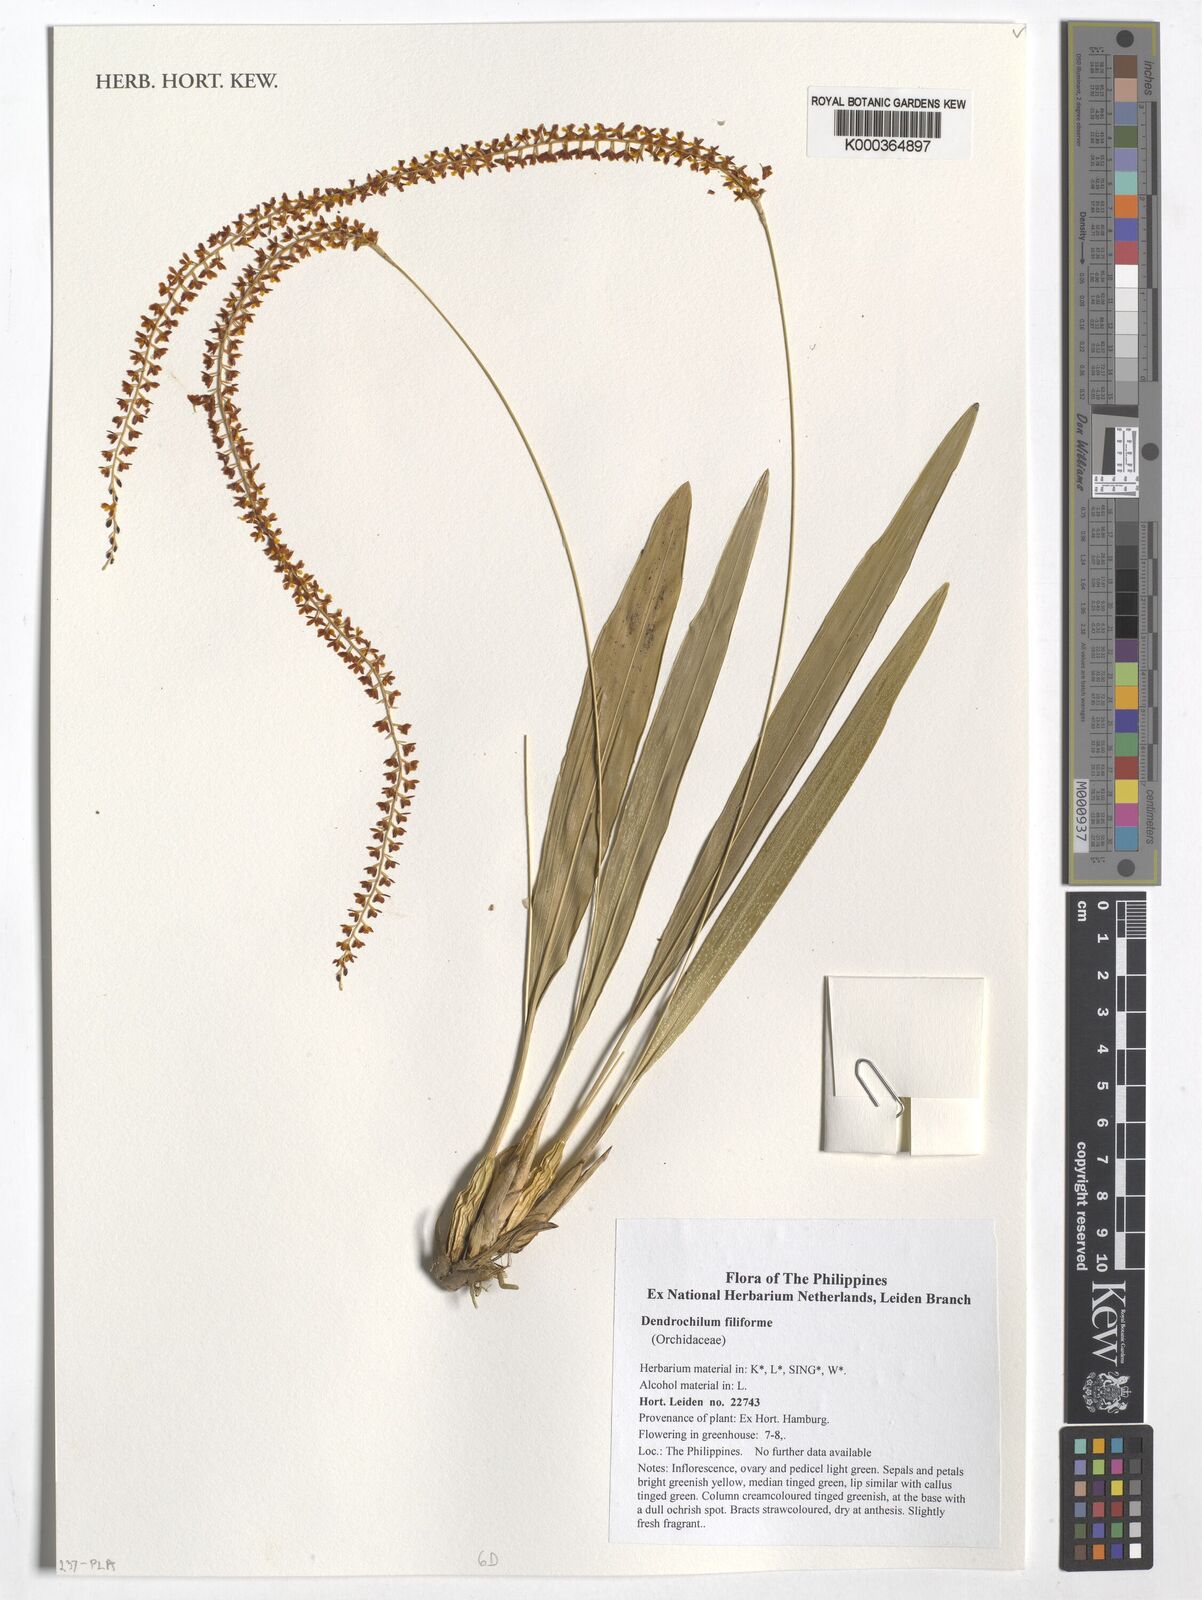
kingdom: Plantae
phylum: Tracheophyta
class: Liliopsida
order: Asparagales
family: Orchidaceae
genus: Coelogyne
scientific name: Coelogyne filiformis
